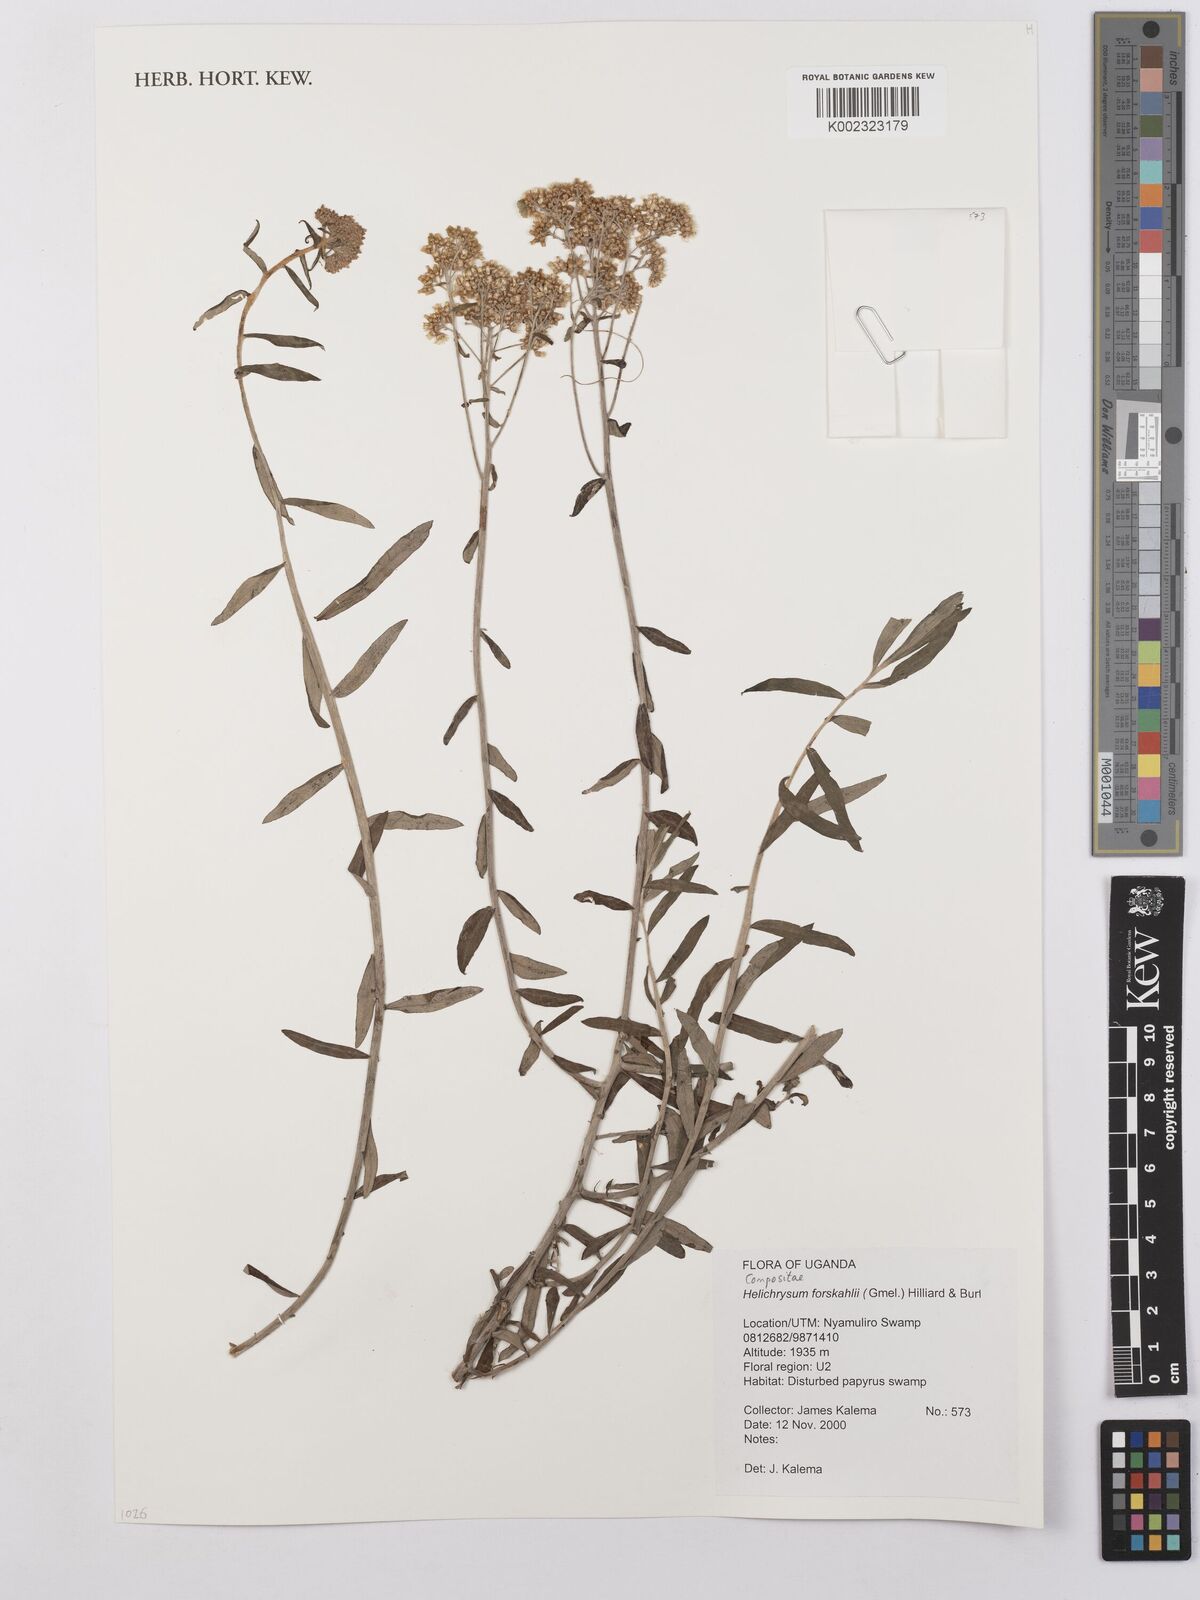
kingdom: Plantae
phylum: Tracheophyta
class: Magnoliopsida
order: Asterales
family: Asteraceae
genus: Helichrysum
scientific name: Helichrysum forskahlii
